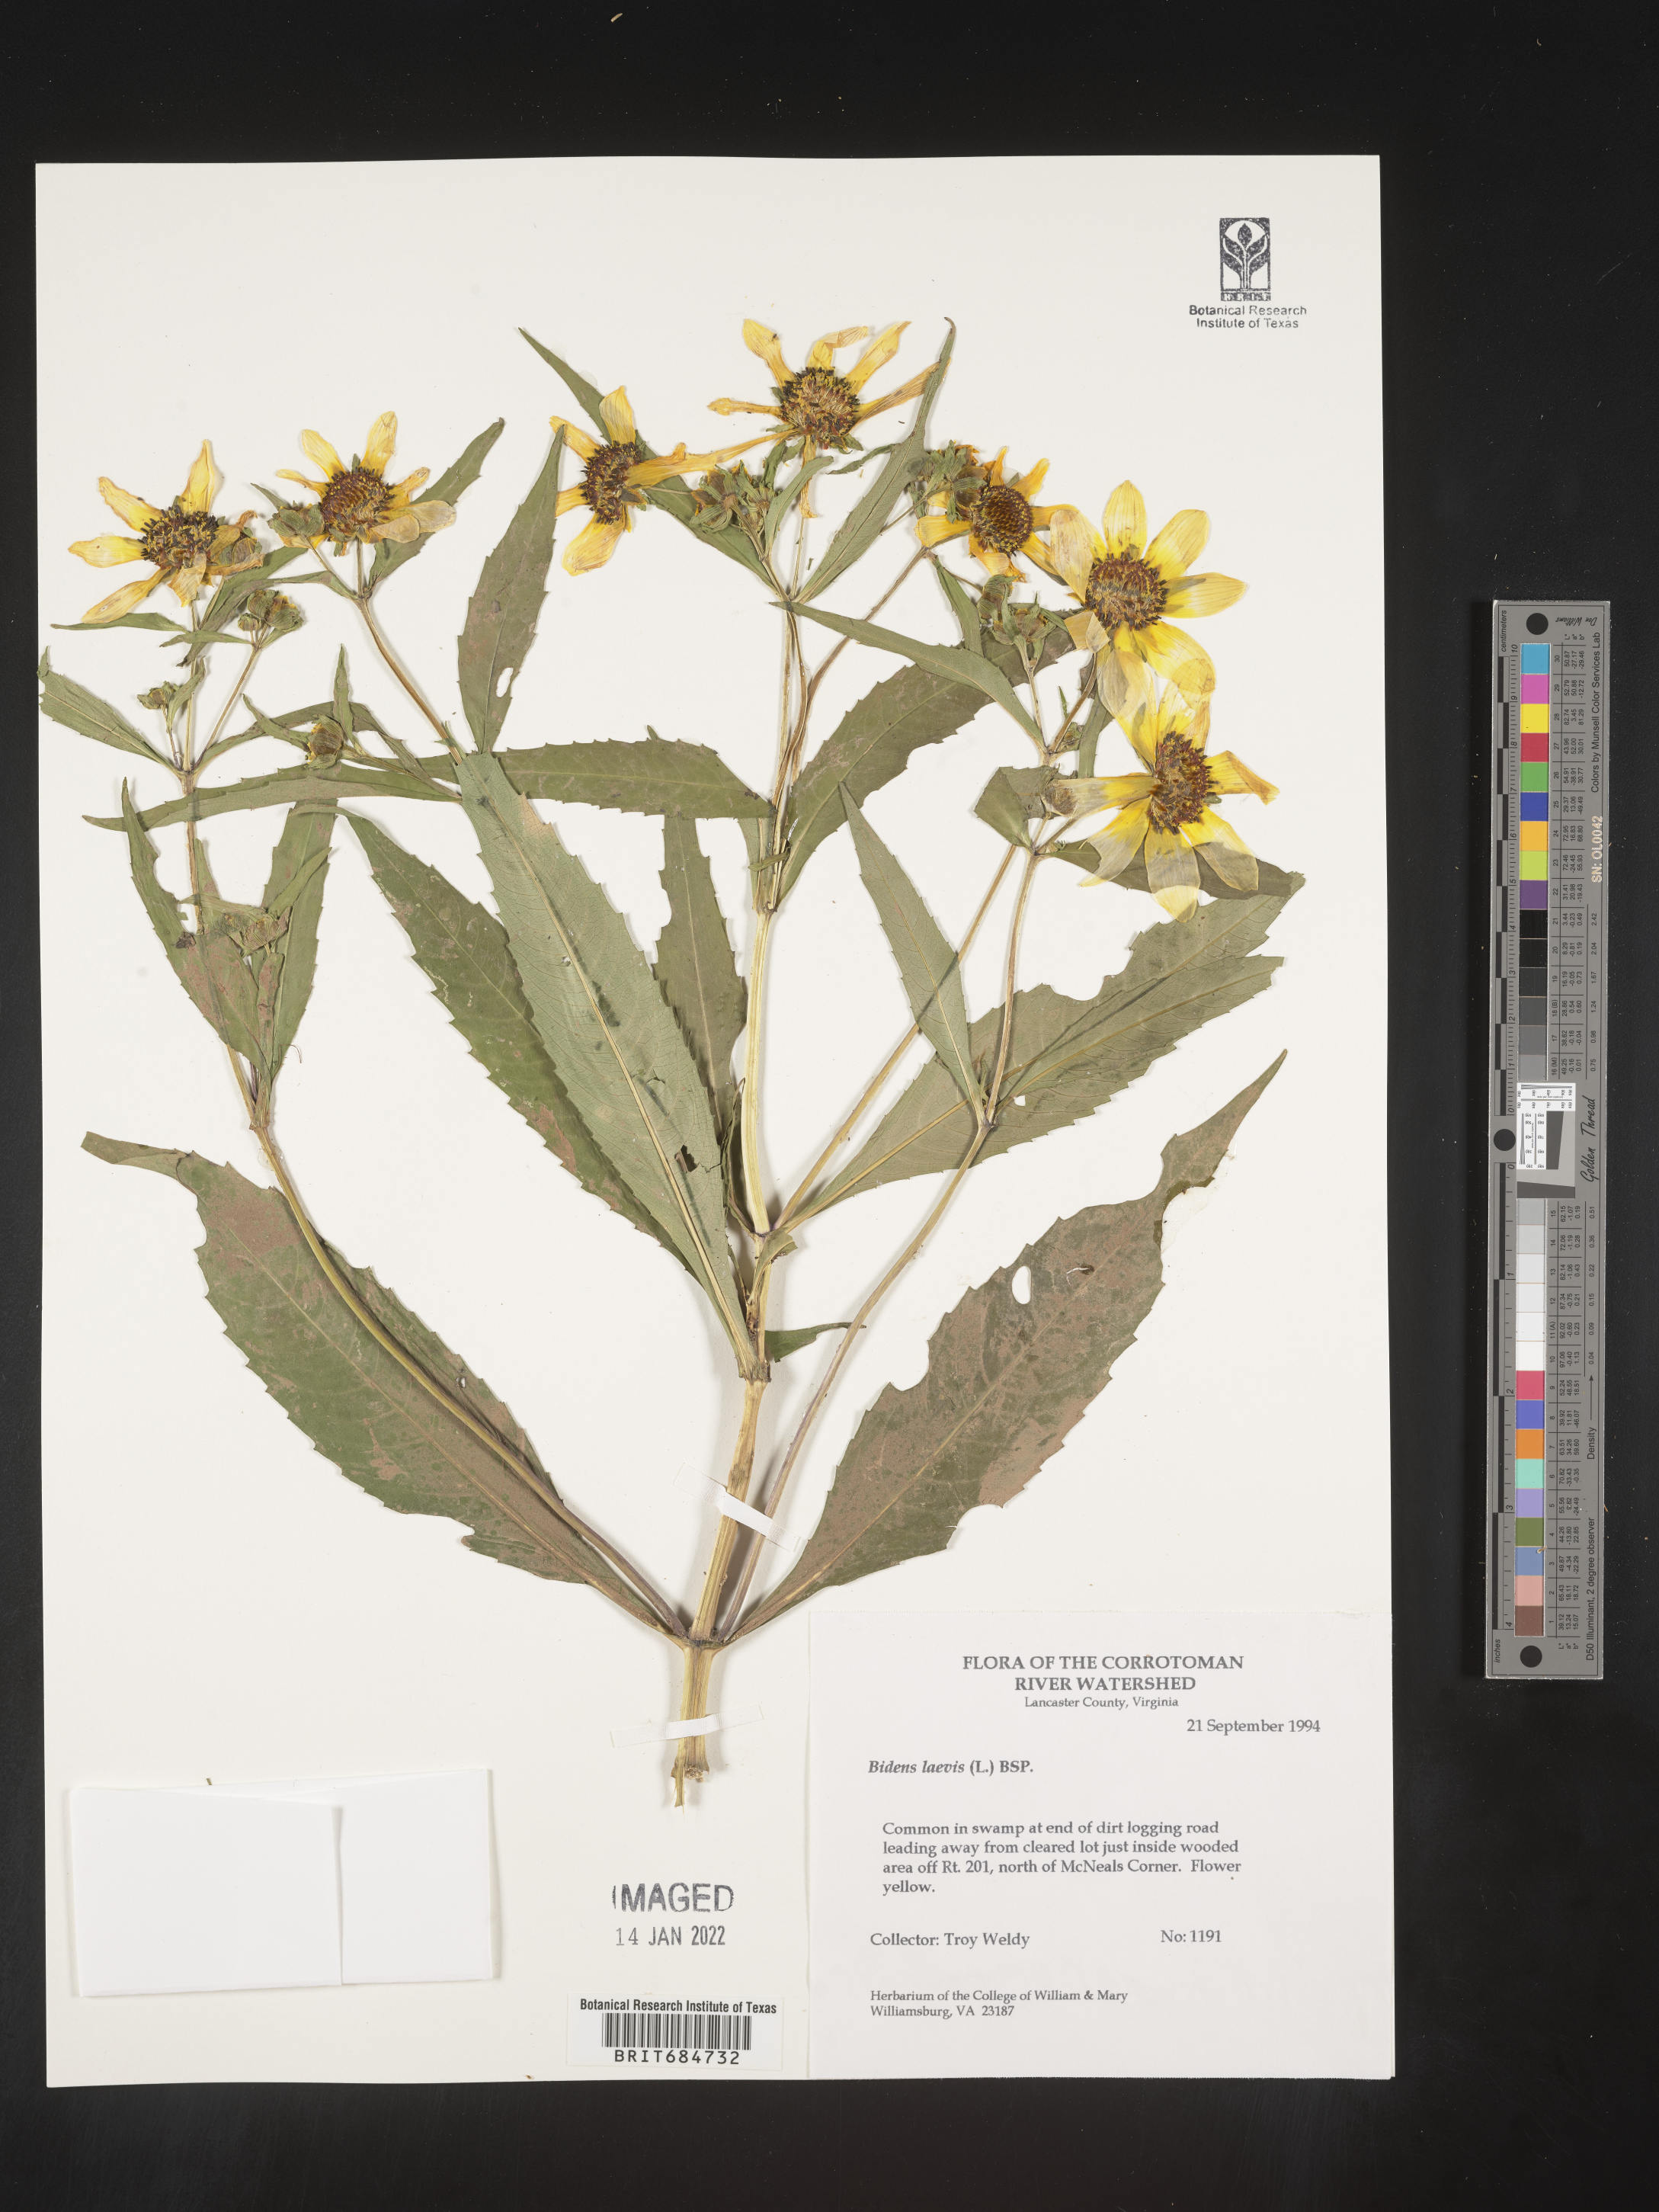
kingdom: Plantae
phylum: Tracheophyta
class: Magnoliopsida
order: Asterales
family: Asteraceae
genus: Bidens
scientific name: Bidens laevis
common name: Larger bur-marigold
